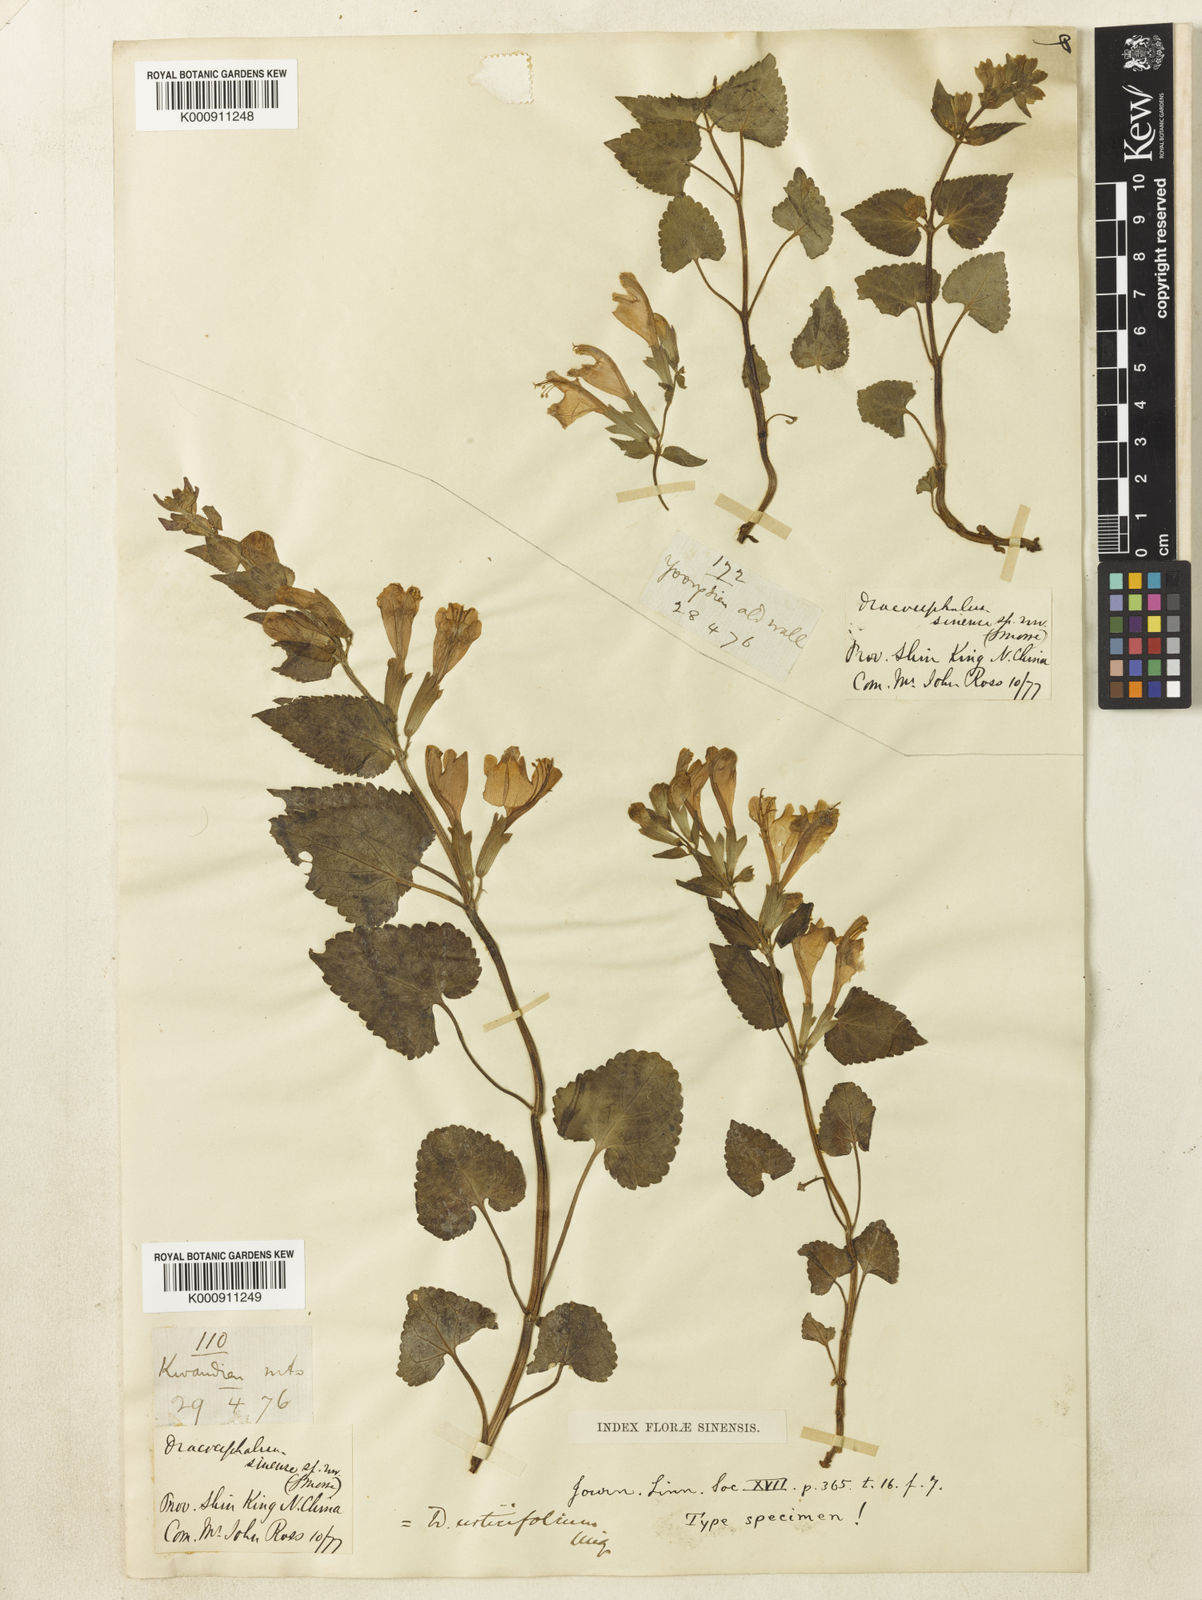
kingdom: Plantae
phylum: Tracheophyta
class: Magnoliopsida
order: Lamiales
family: Lamiaceae
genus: Meehania
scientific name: Meehania urticifolia
